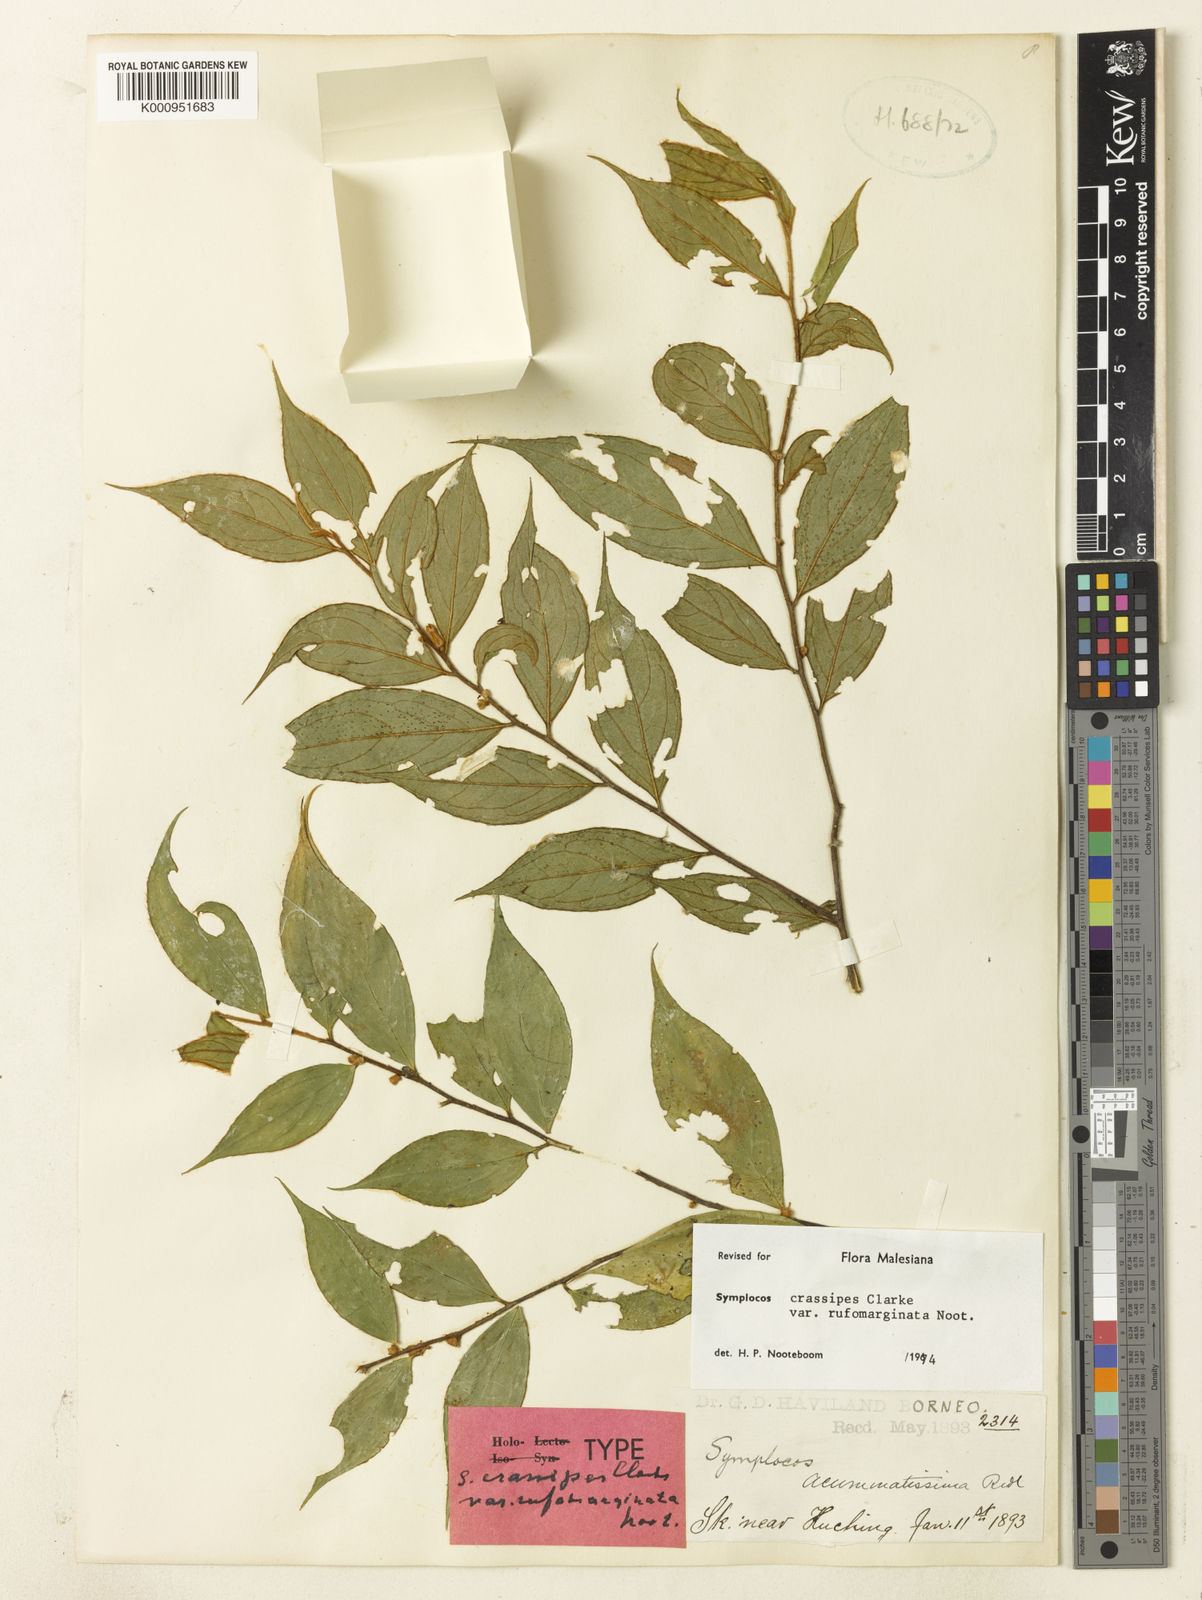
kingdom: Plantae
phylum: Tracheophyta
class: Magnoliopsida
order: Ericales
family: Symplocaceae
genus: Symplocos
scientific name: Symplocos crassipes
